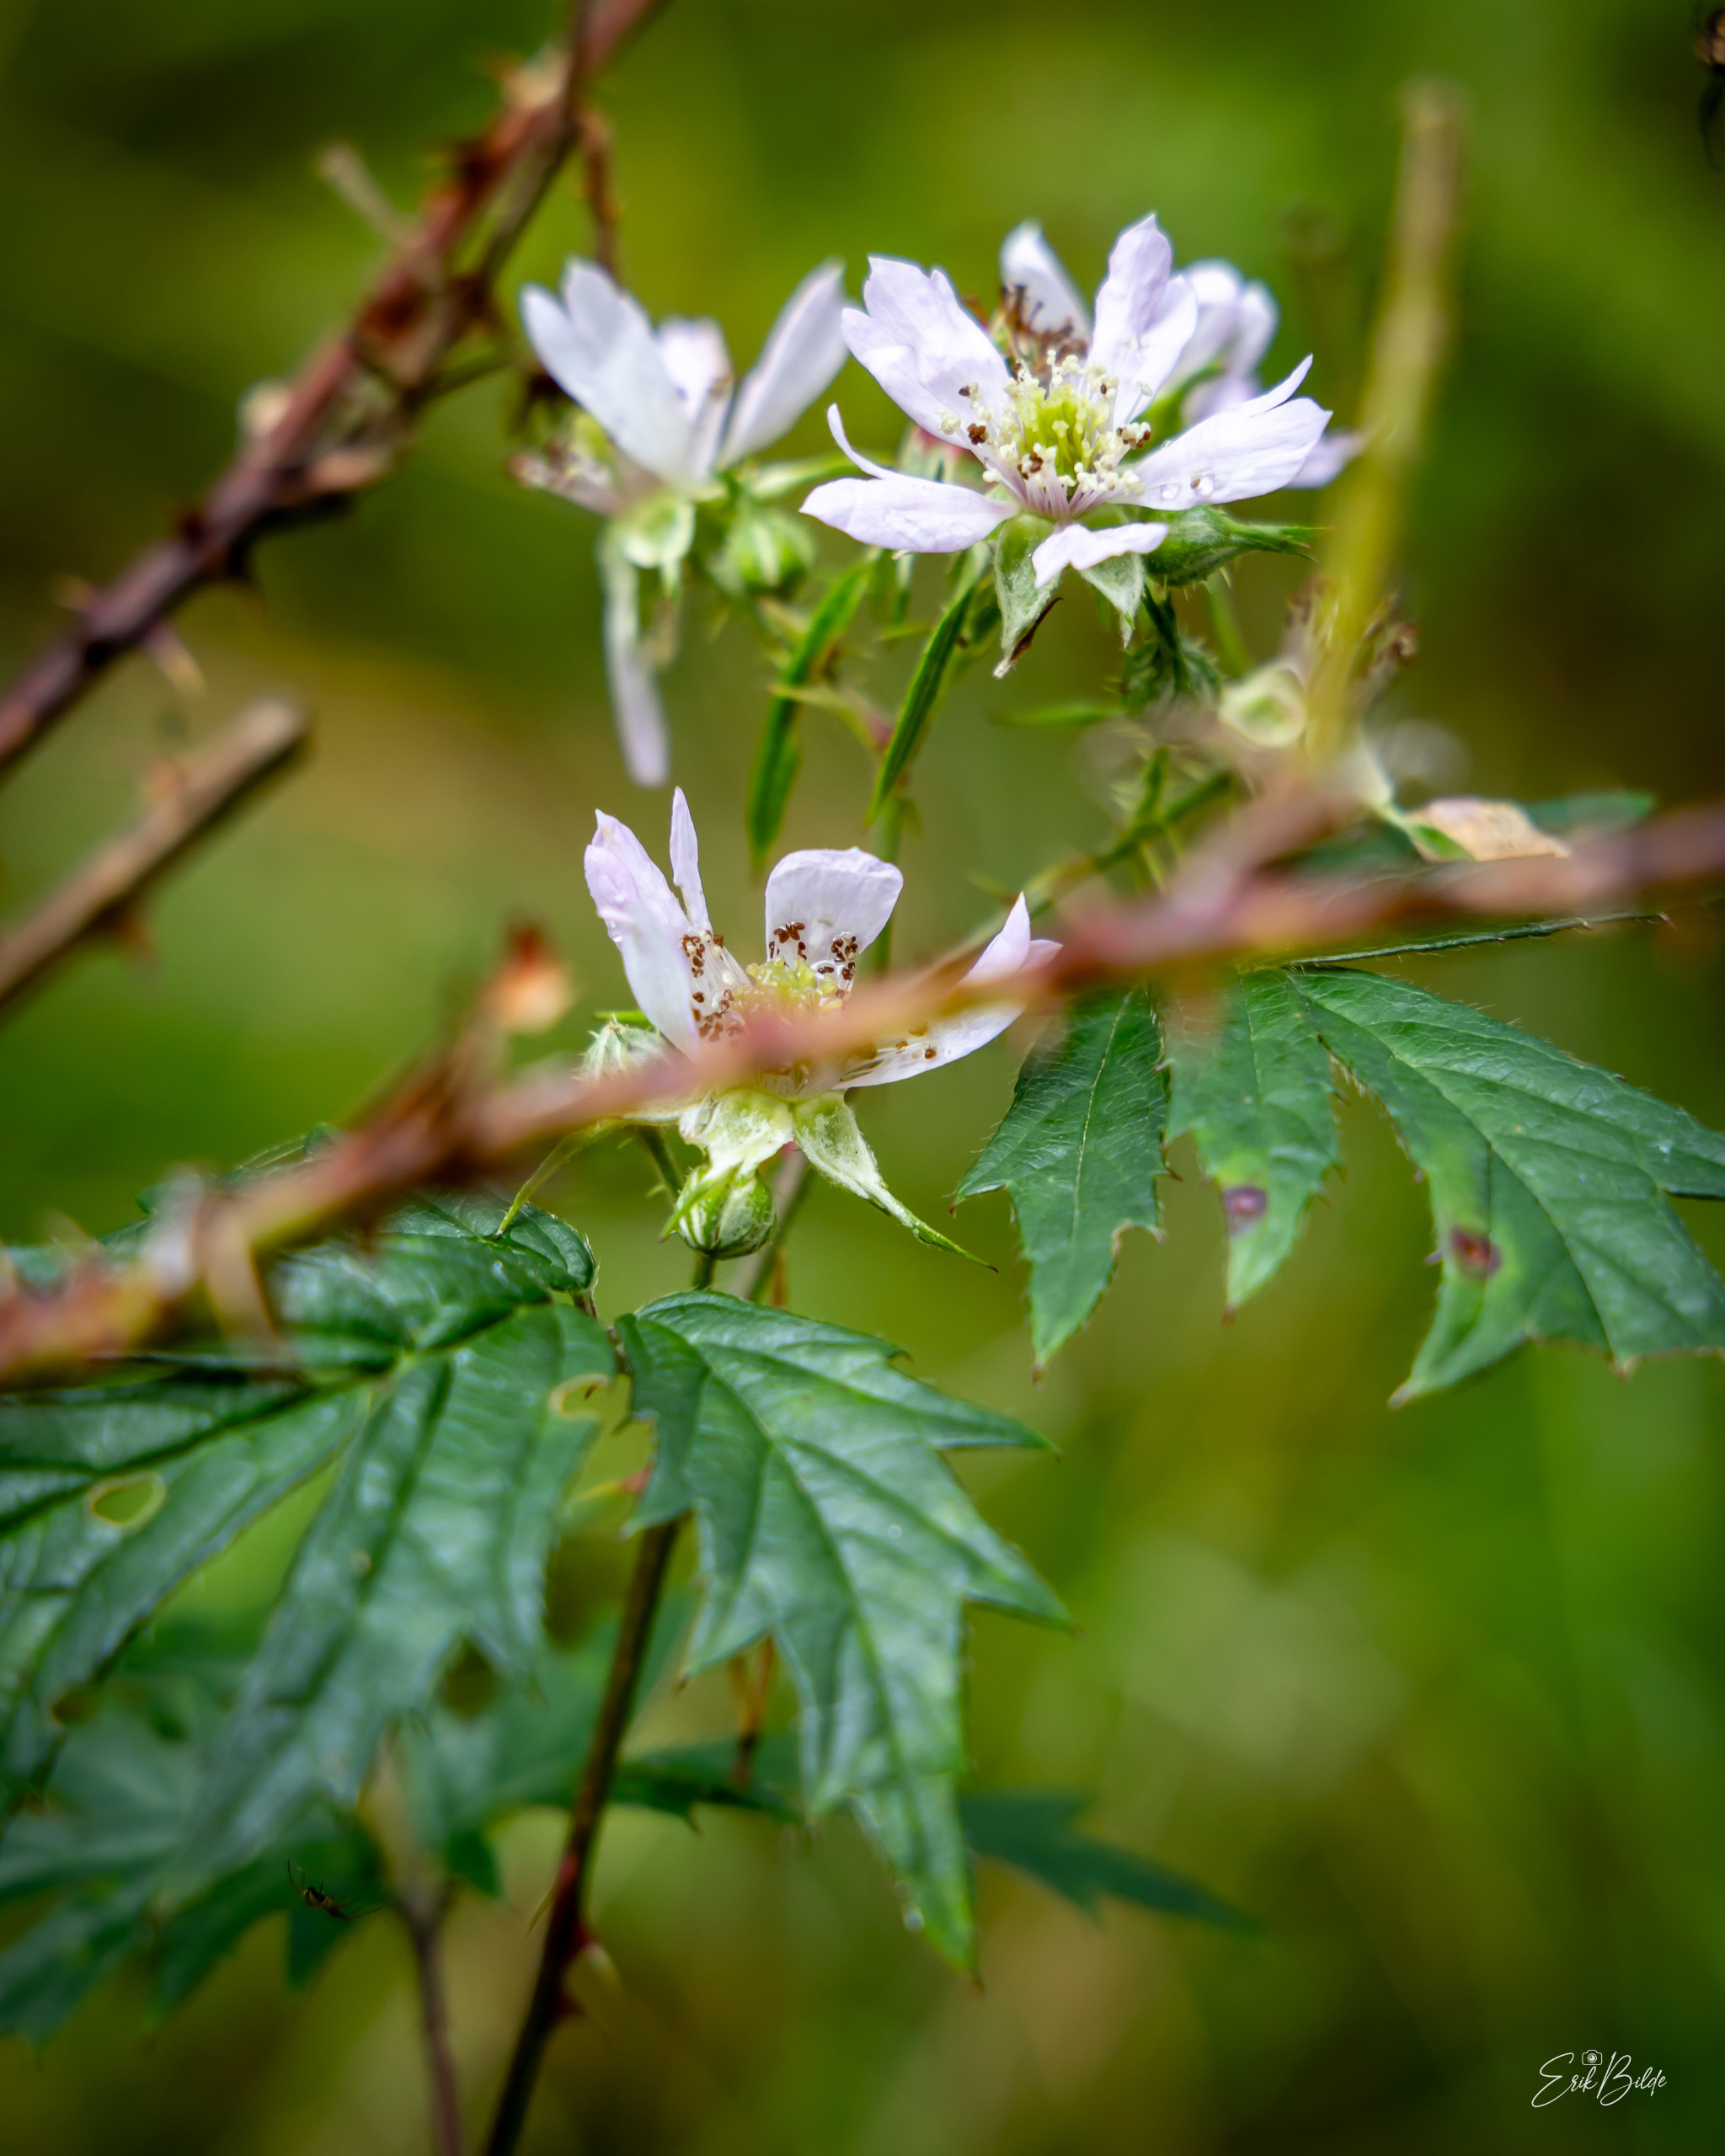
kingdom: Plantae
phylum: Tracheophyta
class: Magnoliopsida
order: Rosales
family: Rosaceae
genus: Rubus
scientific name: Rubus laciniatus
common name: Fliget brombær
